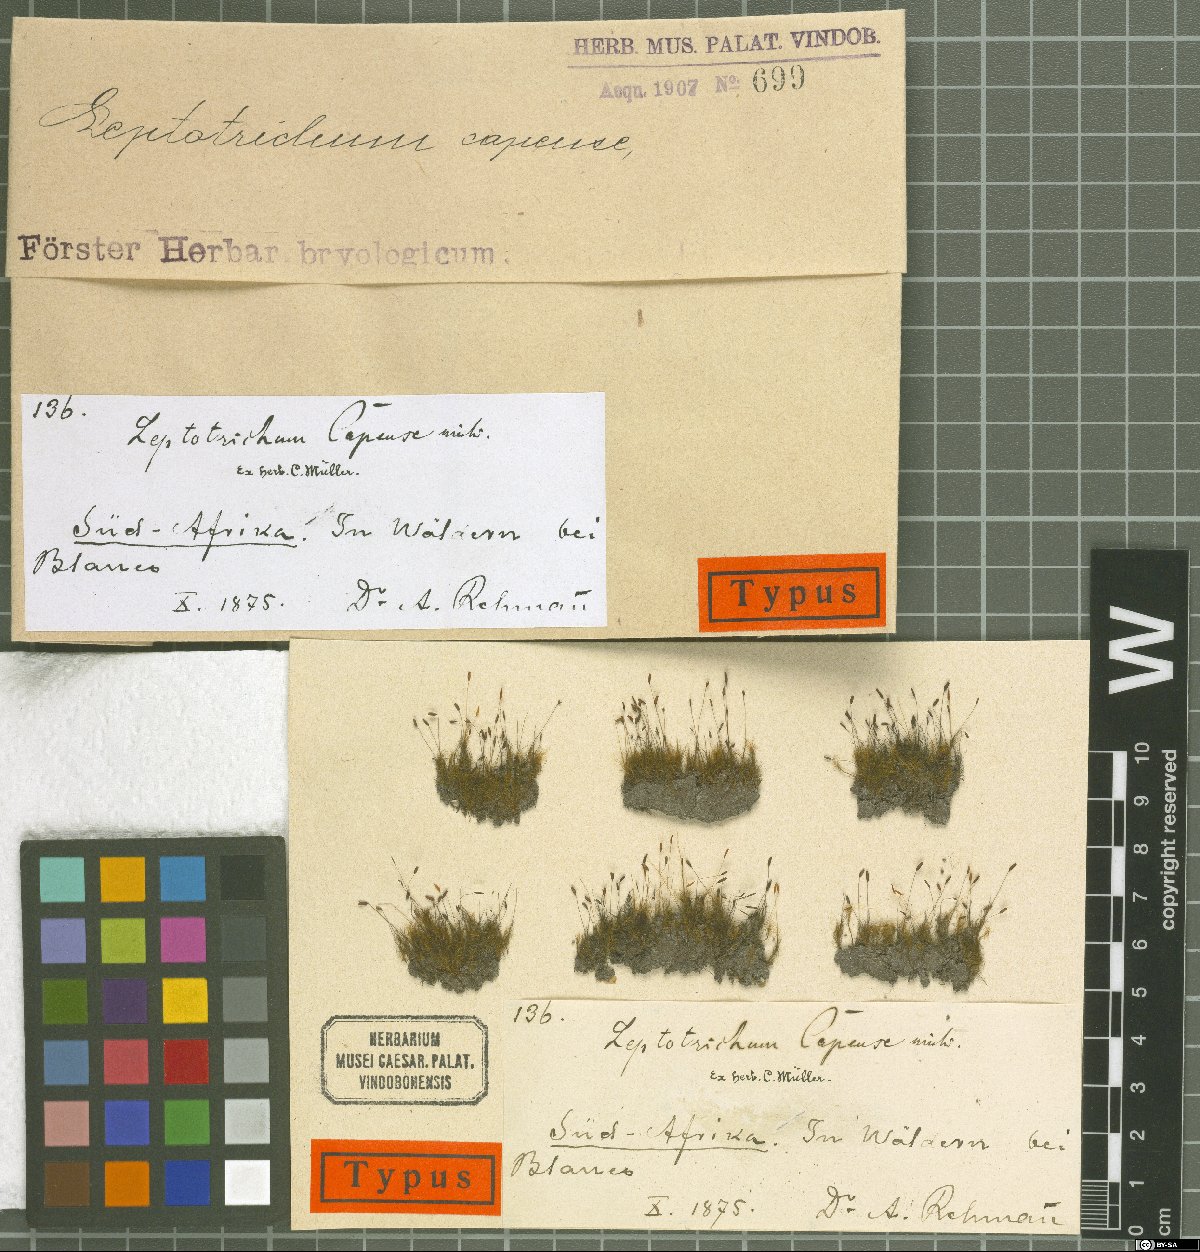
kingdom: Plantae
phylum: Bryophyta
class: Bryopsida
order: Dicranales
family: Ditrichaceae
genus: Ditrichum
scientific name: Ditrichum difficile
